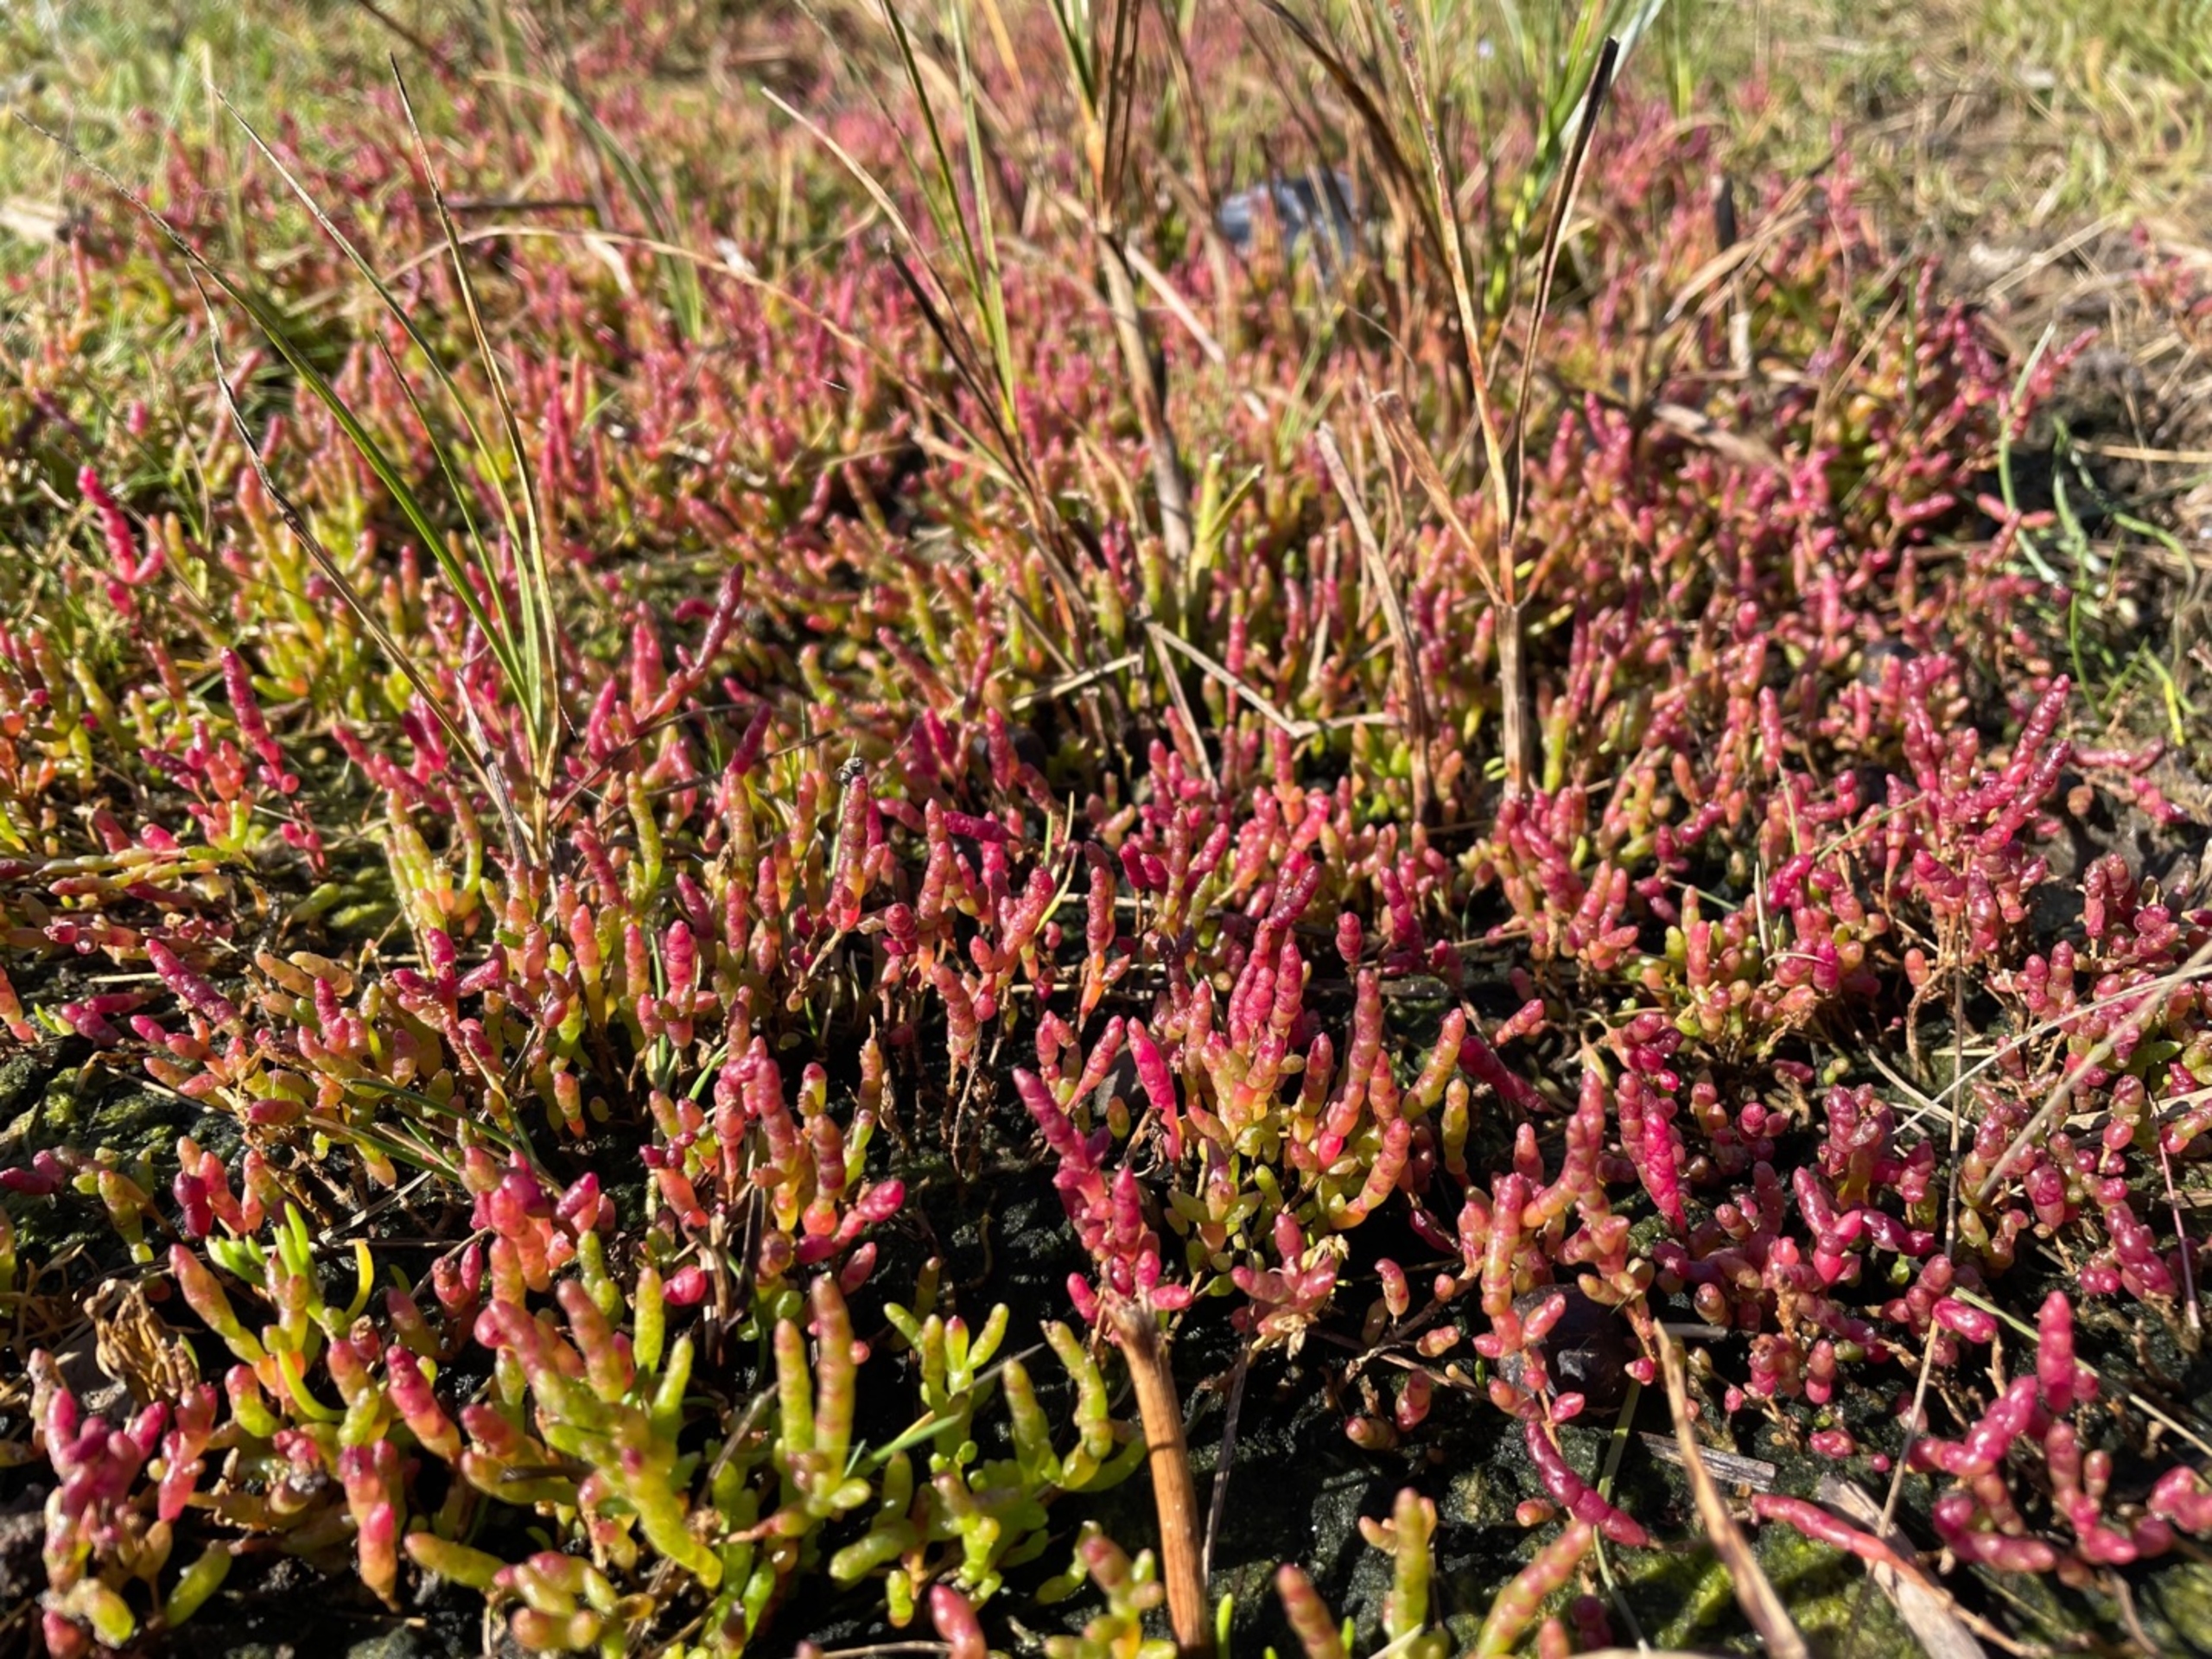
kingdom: Plantae
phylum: Tracheophyta
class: Magnoliopsida
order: Caryophyllales
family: Amaranthaceae
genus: Salicornia
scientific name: Salicornia europaea
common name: Almindelig salturt
